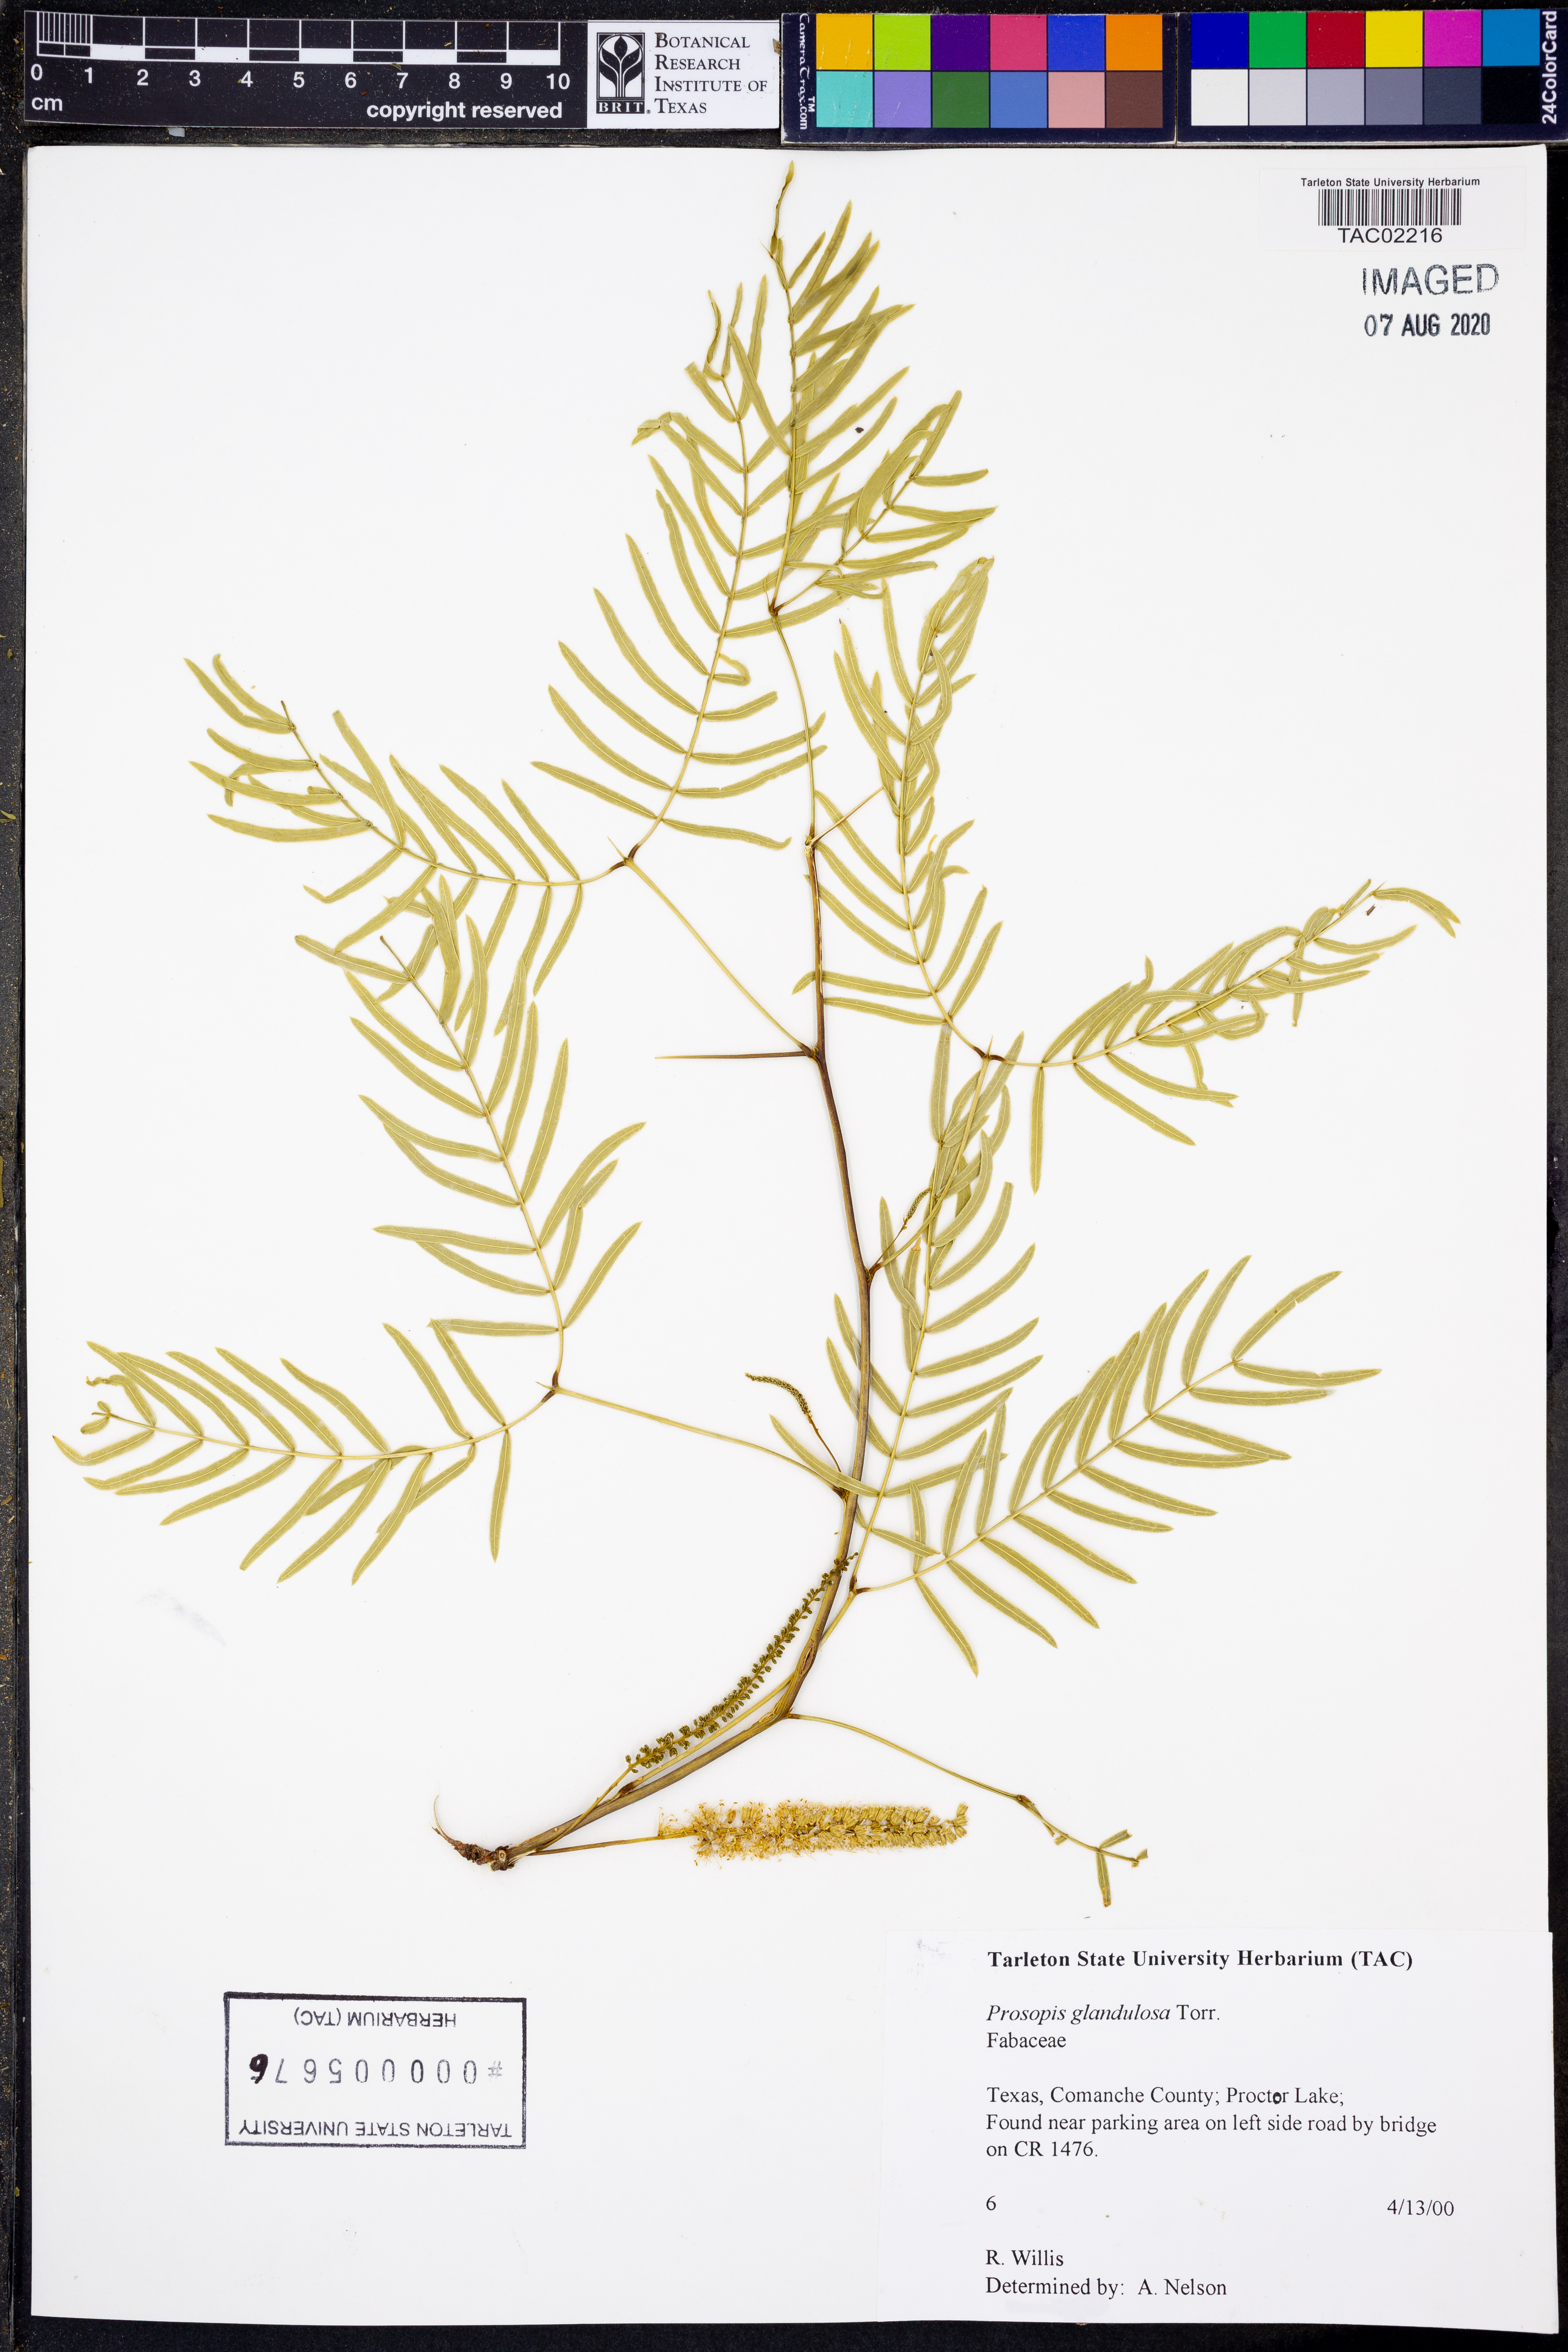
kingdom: Plantae
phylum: Tracheophyta
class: Magnoliopsida
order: Fabales
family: Fabaceae
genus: Prosopis
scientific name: Prosopis glandulosa
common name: Honey mesquite
